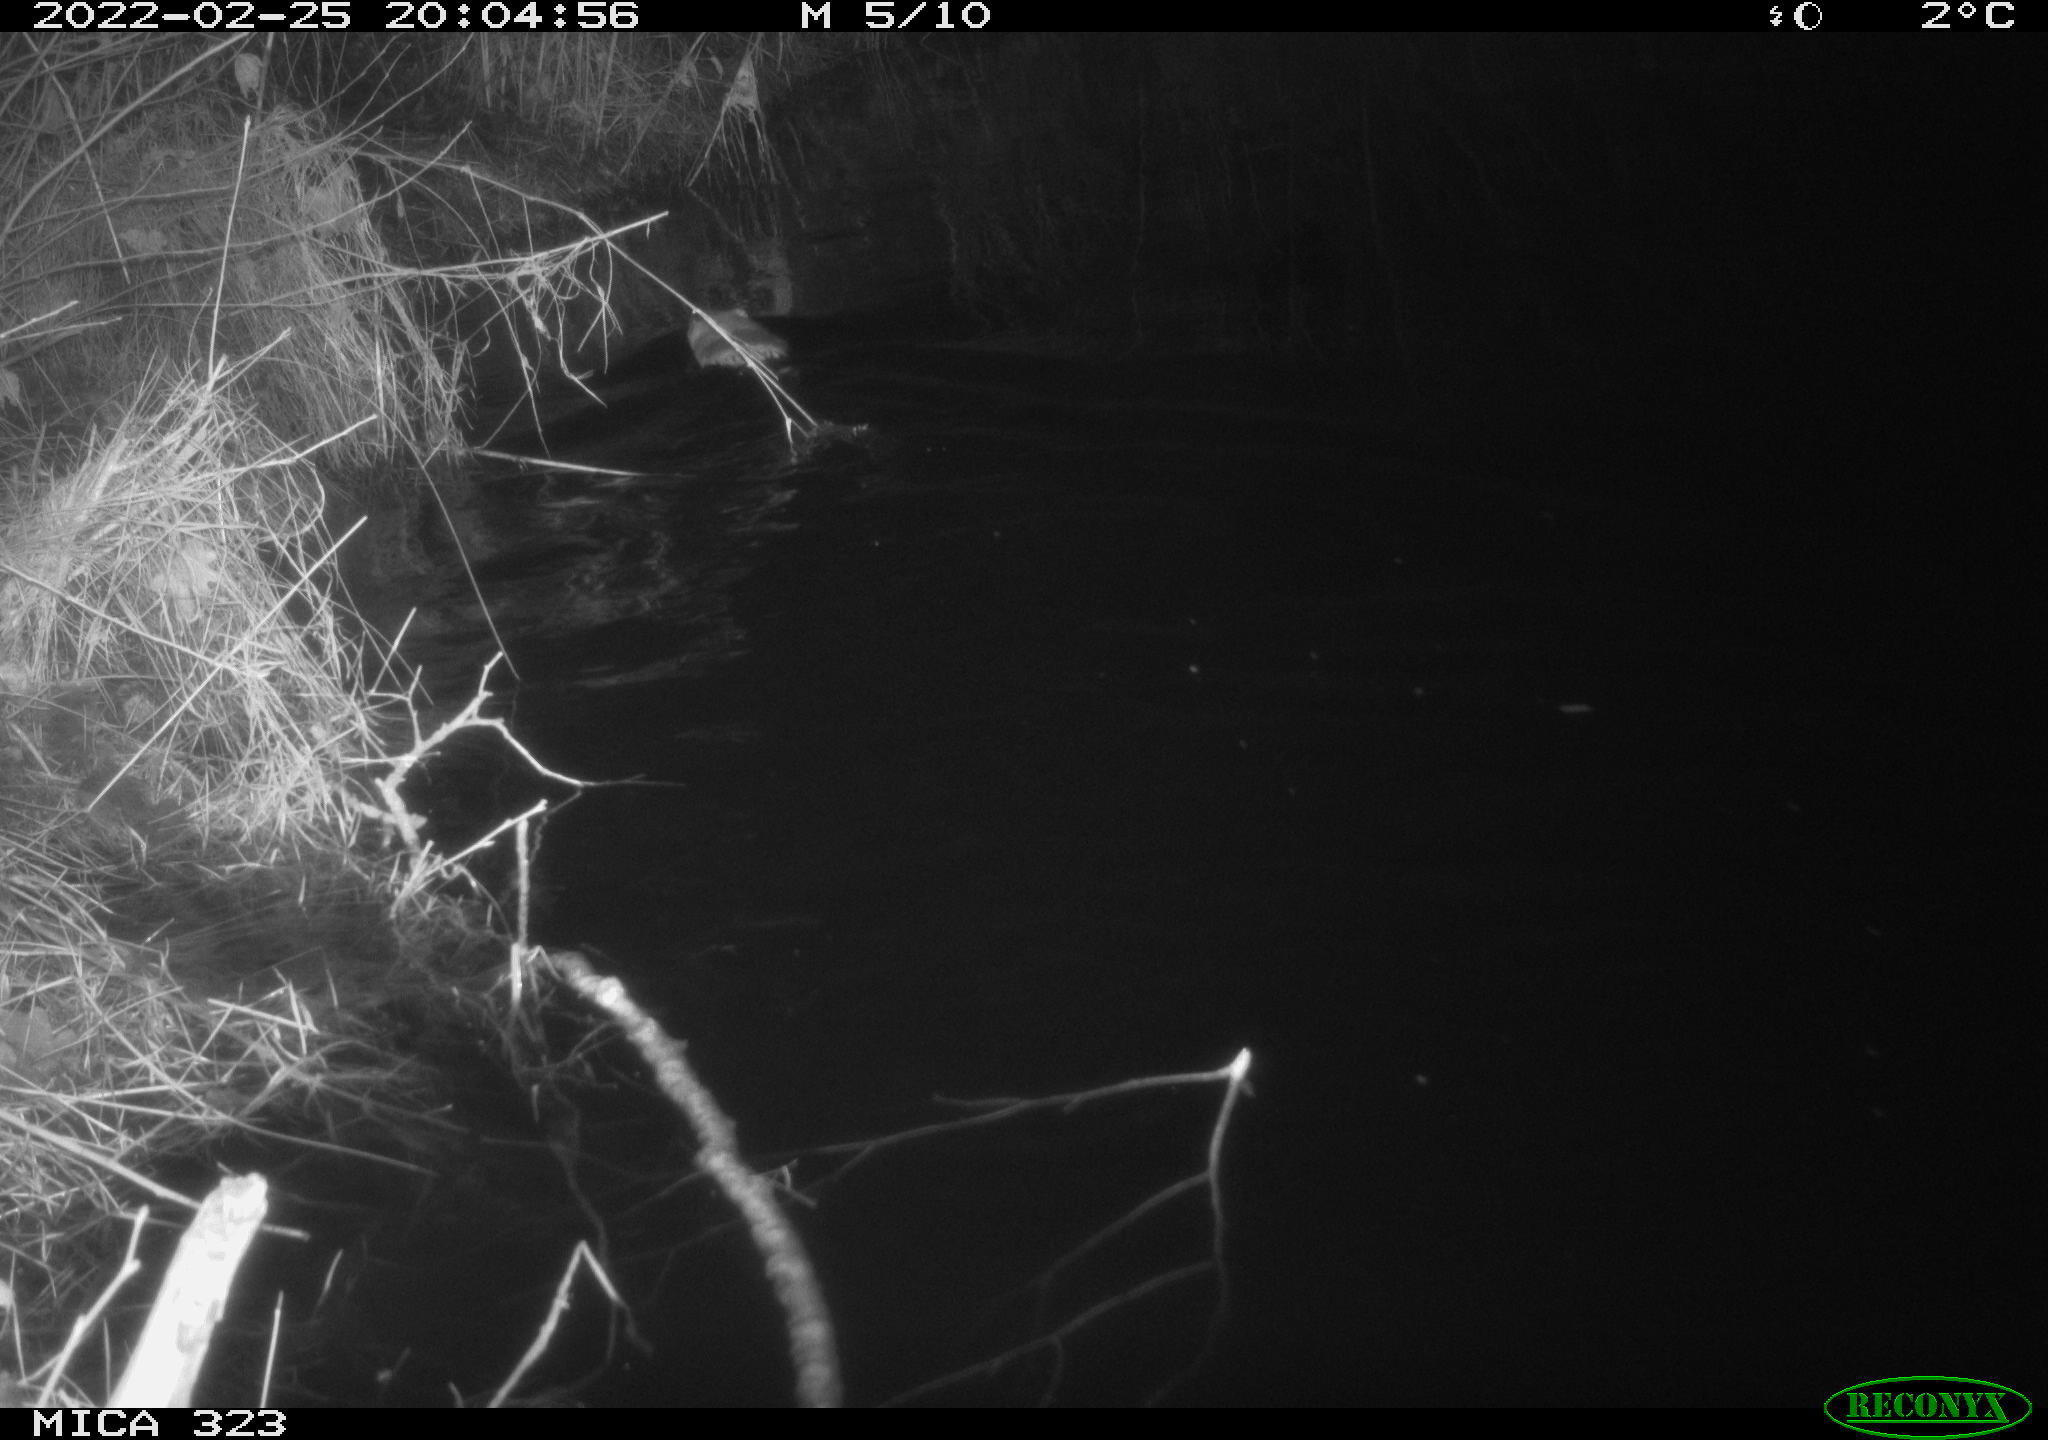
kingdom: Animalia
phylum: Chordata
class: Mammalia
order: Rodentia
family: Cricetidae
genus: Ondatra
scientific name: Ondatra zibethicus
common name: Muskrat
